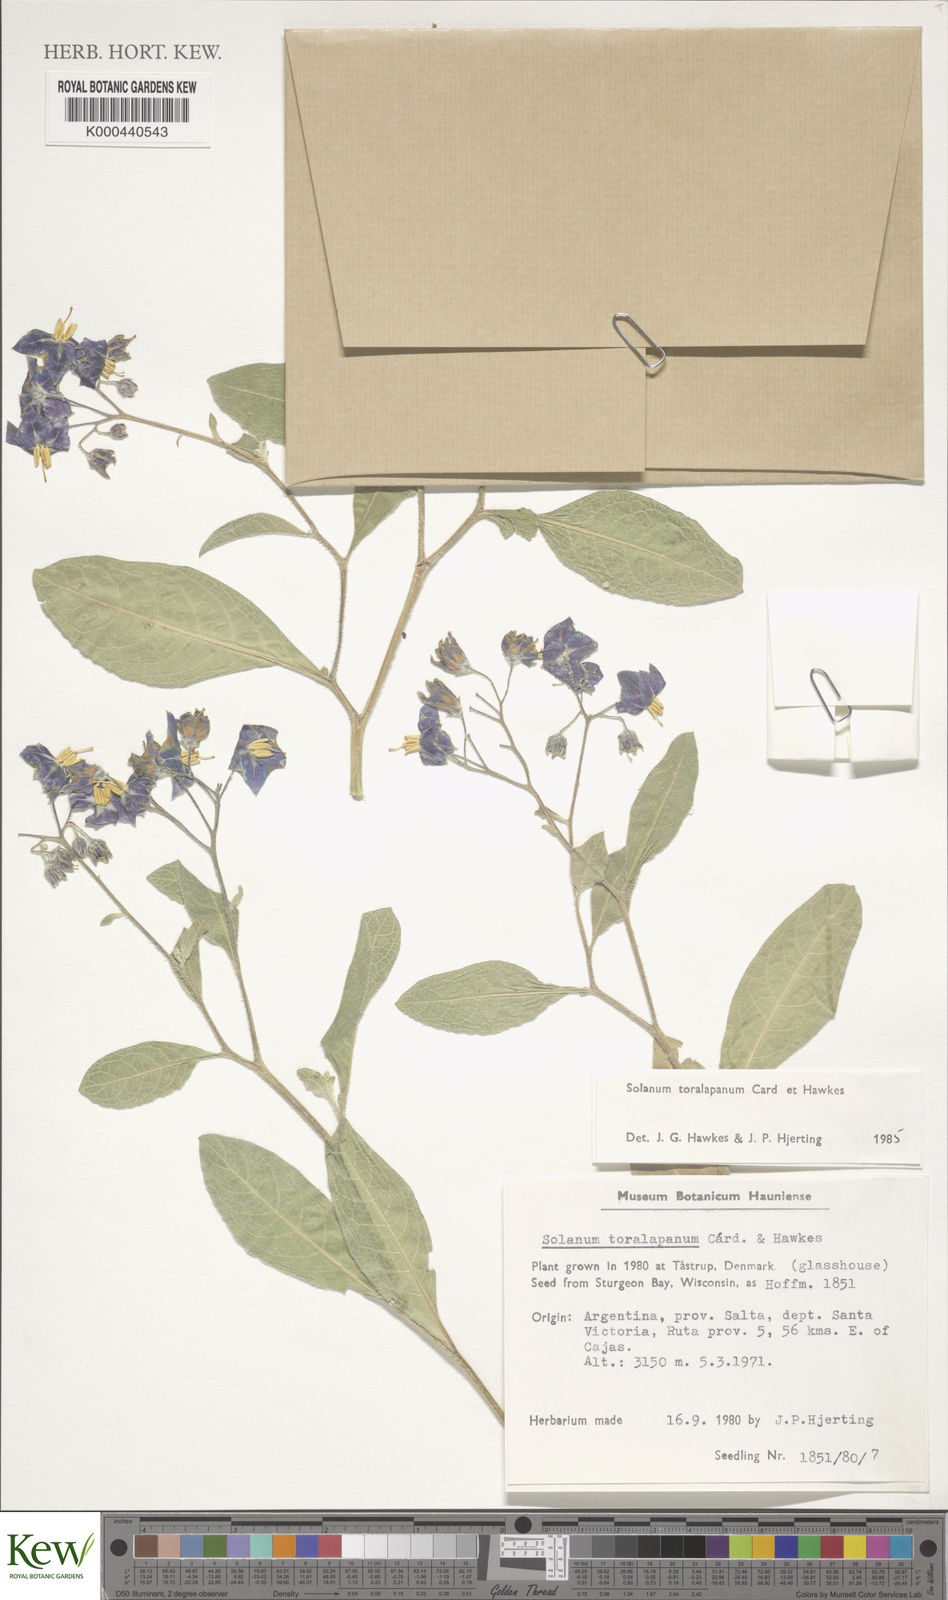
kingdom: Plantae
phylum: Tracheophyta
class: Magnoliopsida
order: Solanales
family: Solanaceae
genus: Solanum
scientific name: Solanum
